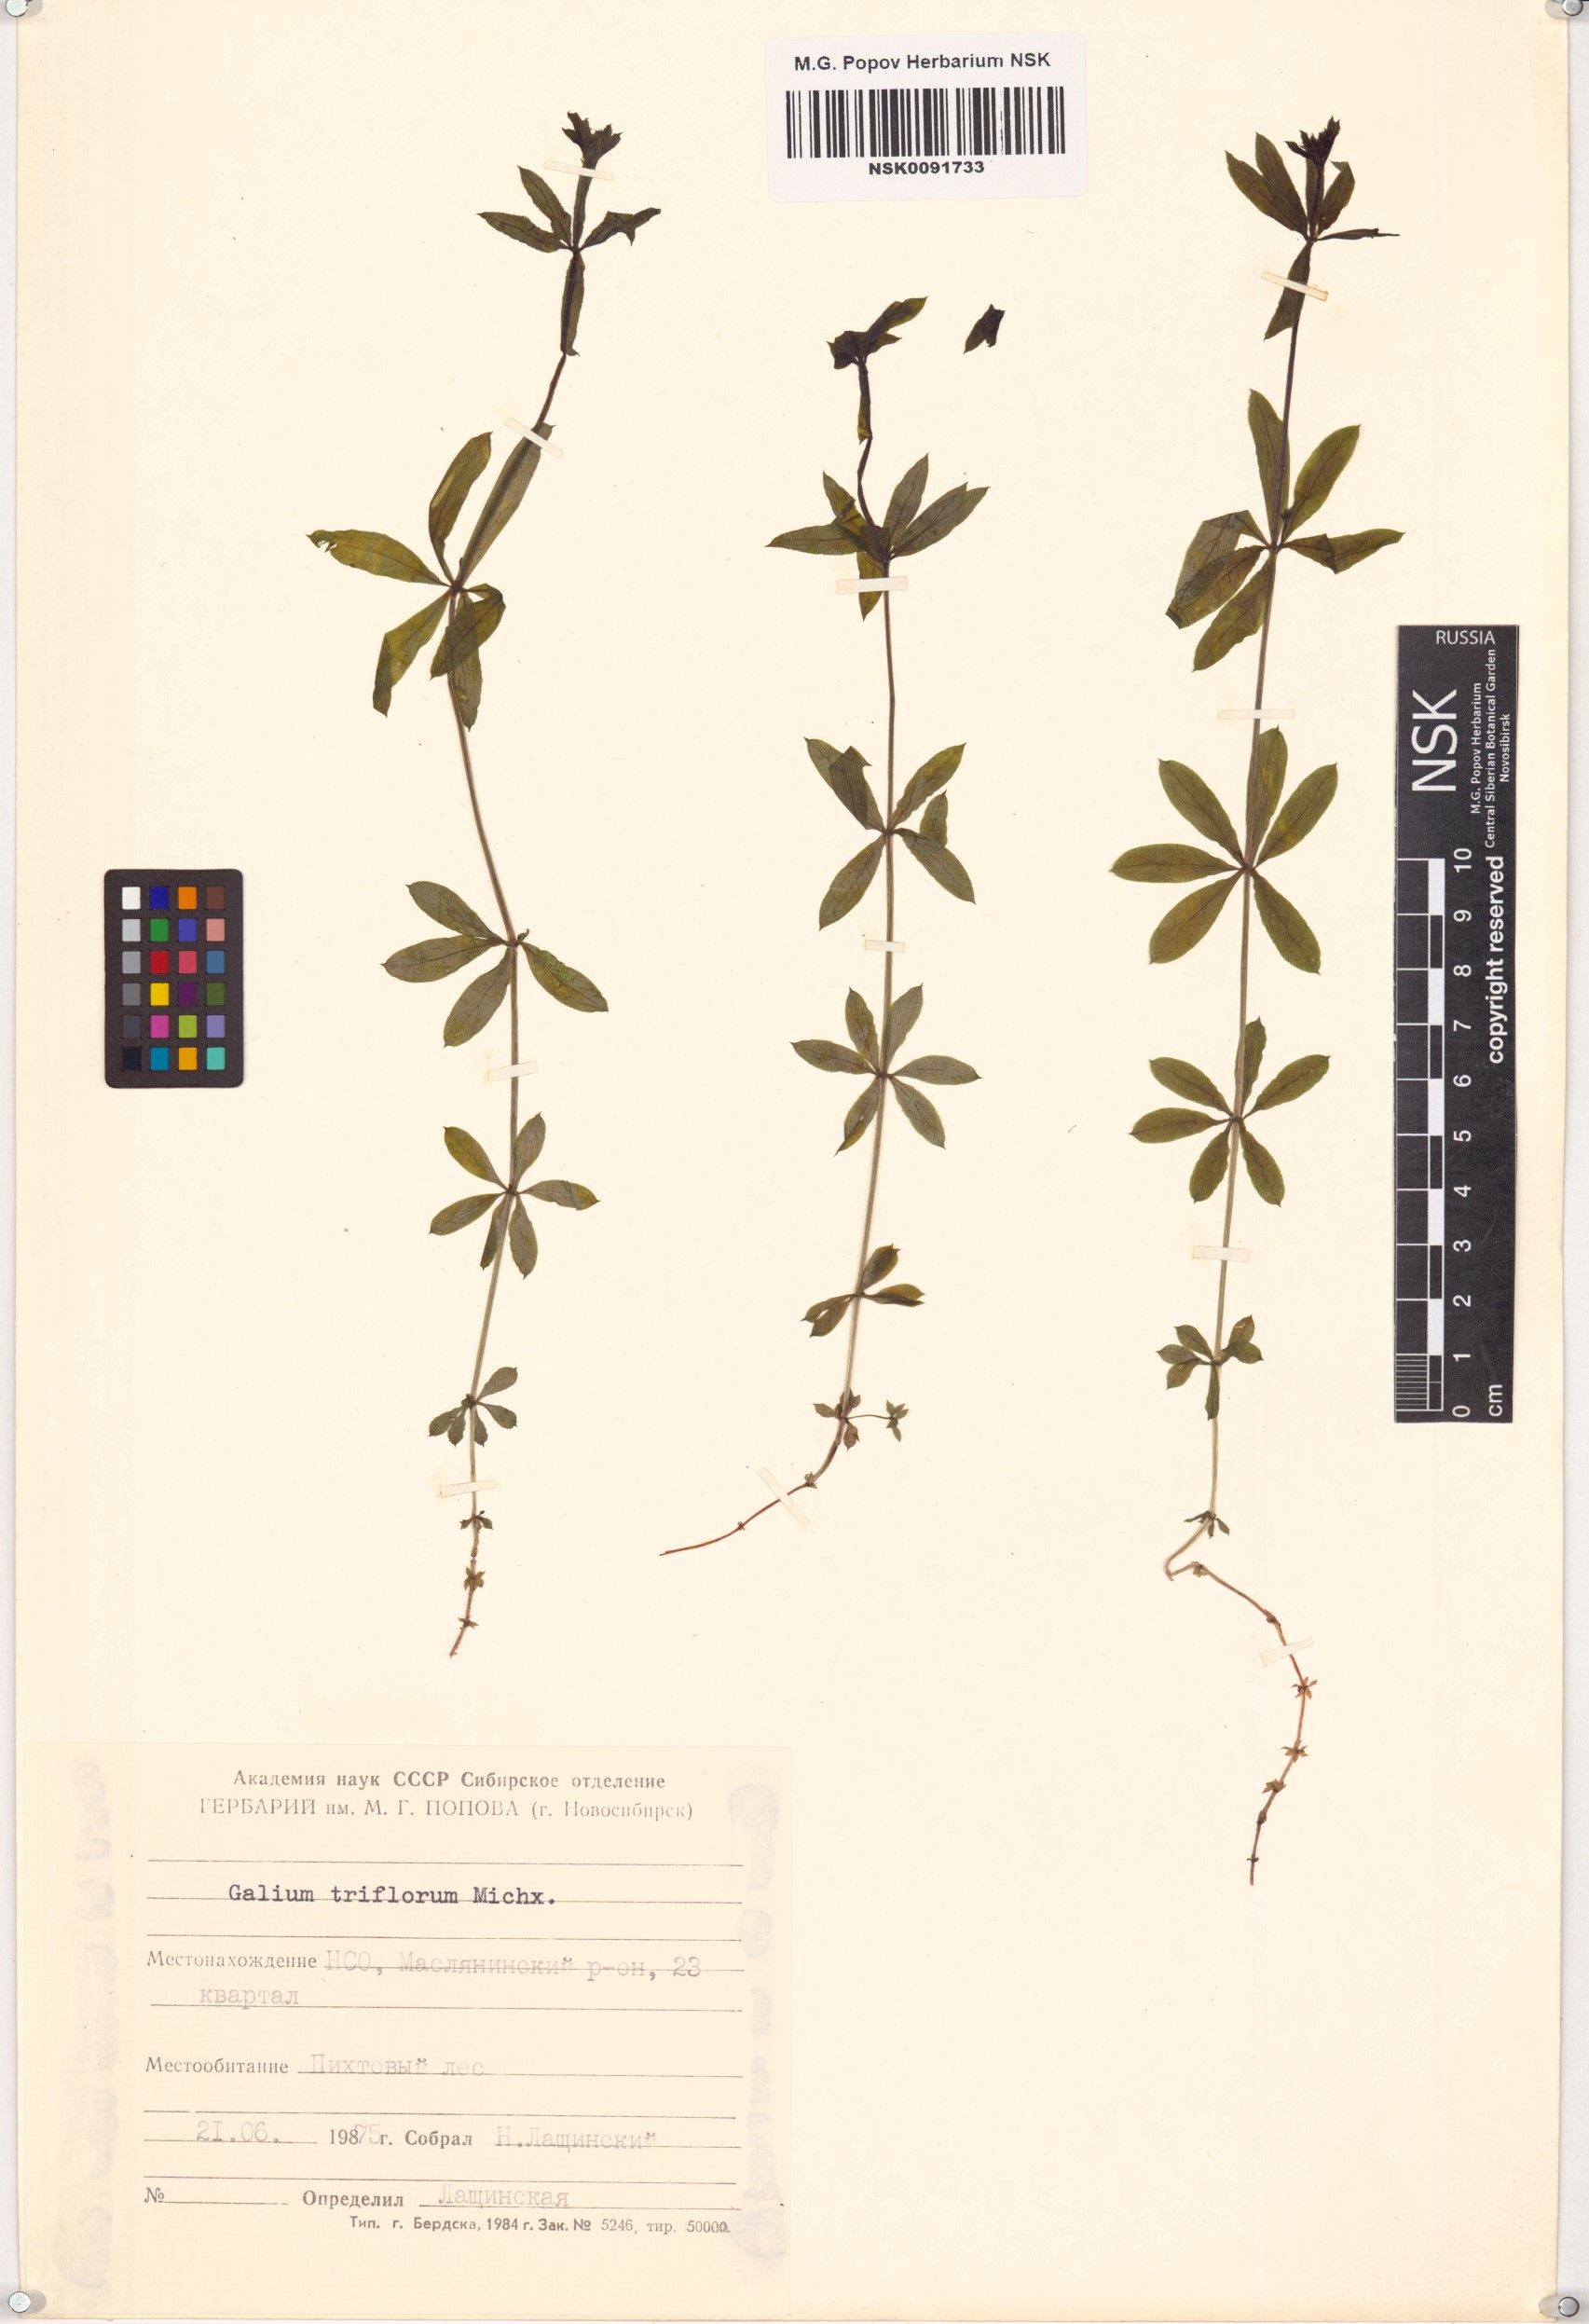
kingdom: Plantae
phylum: Tracheophyta
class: Magnoliopsida
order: Gentianales
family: Rubiaceae
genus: Galium
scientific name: Galium triflorum
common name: Fragrant bedstraw
